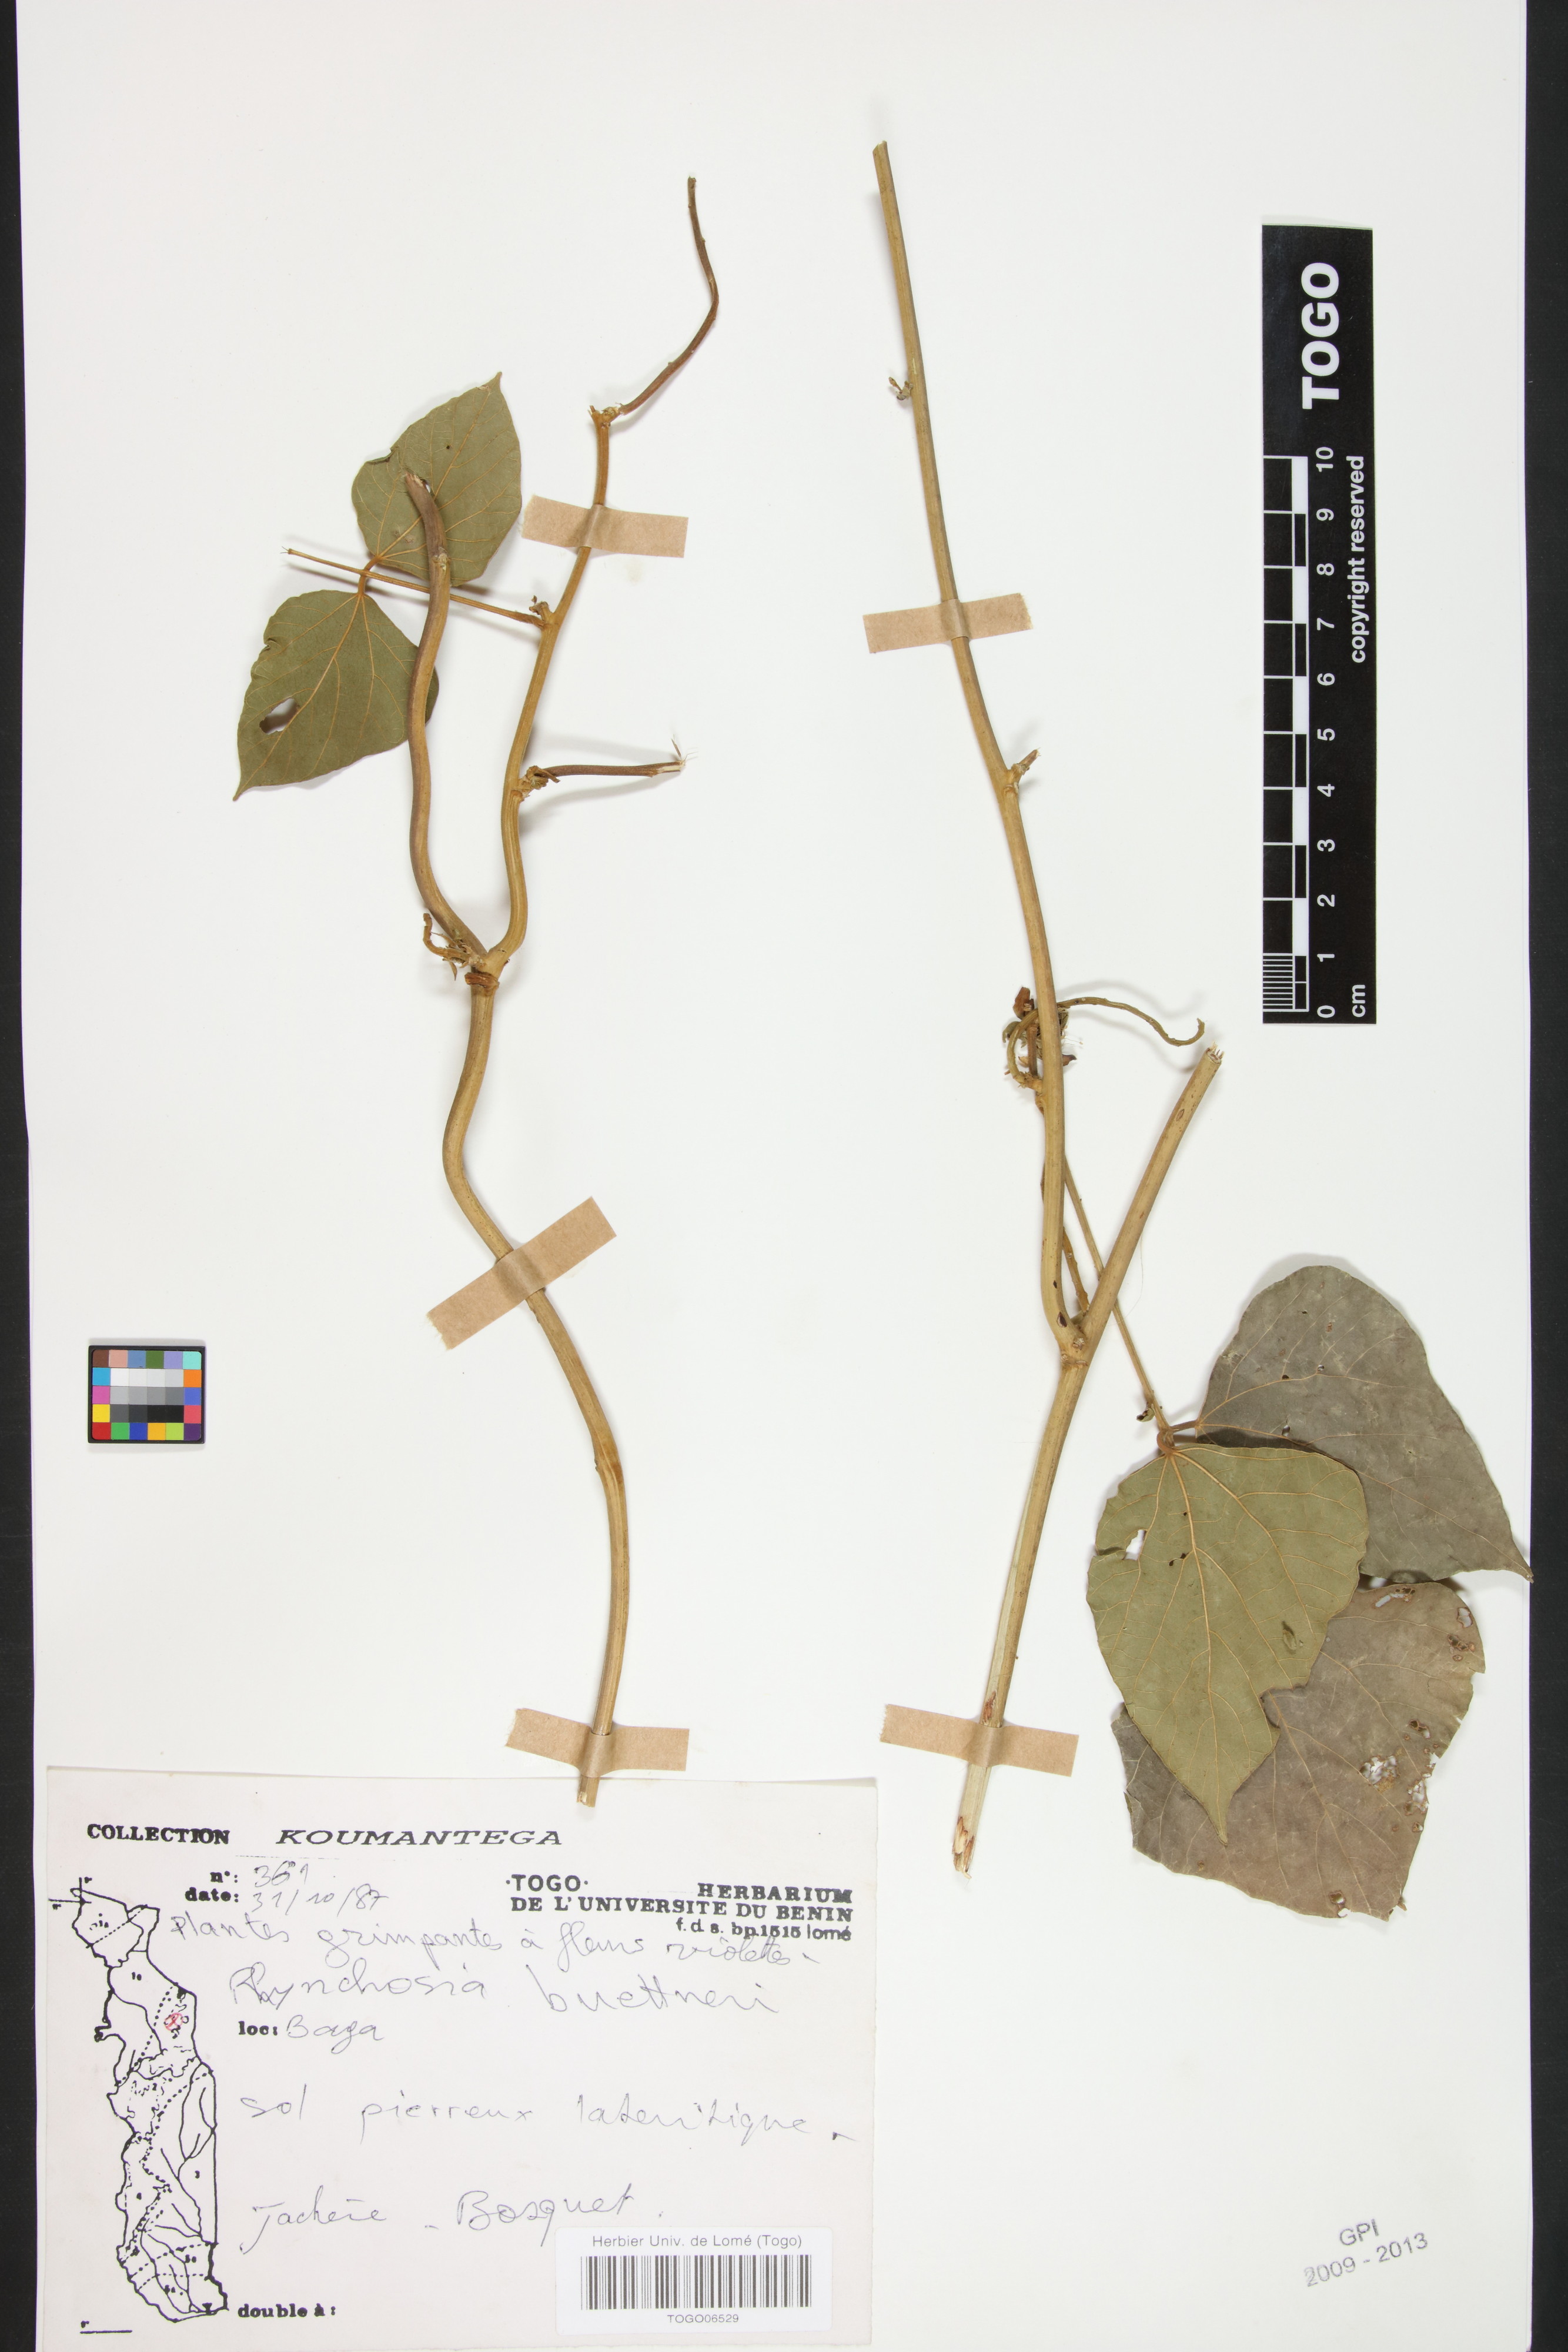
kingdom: Plantae
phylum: Tracheophyta
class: Magnoliopsida
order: Fabales
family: Fabaceae
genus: Rhynchosia
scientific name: Rhynchosia buettneri
